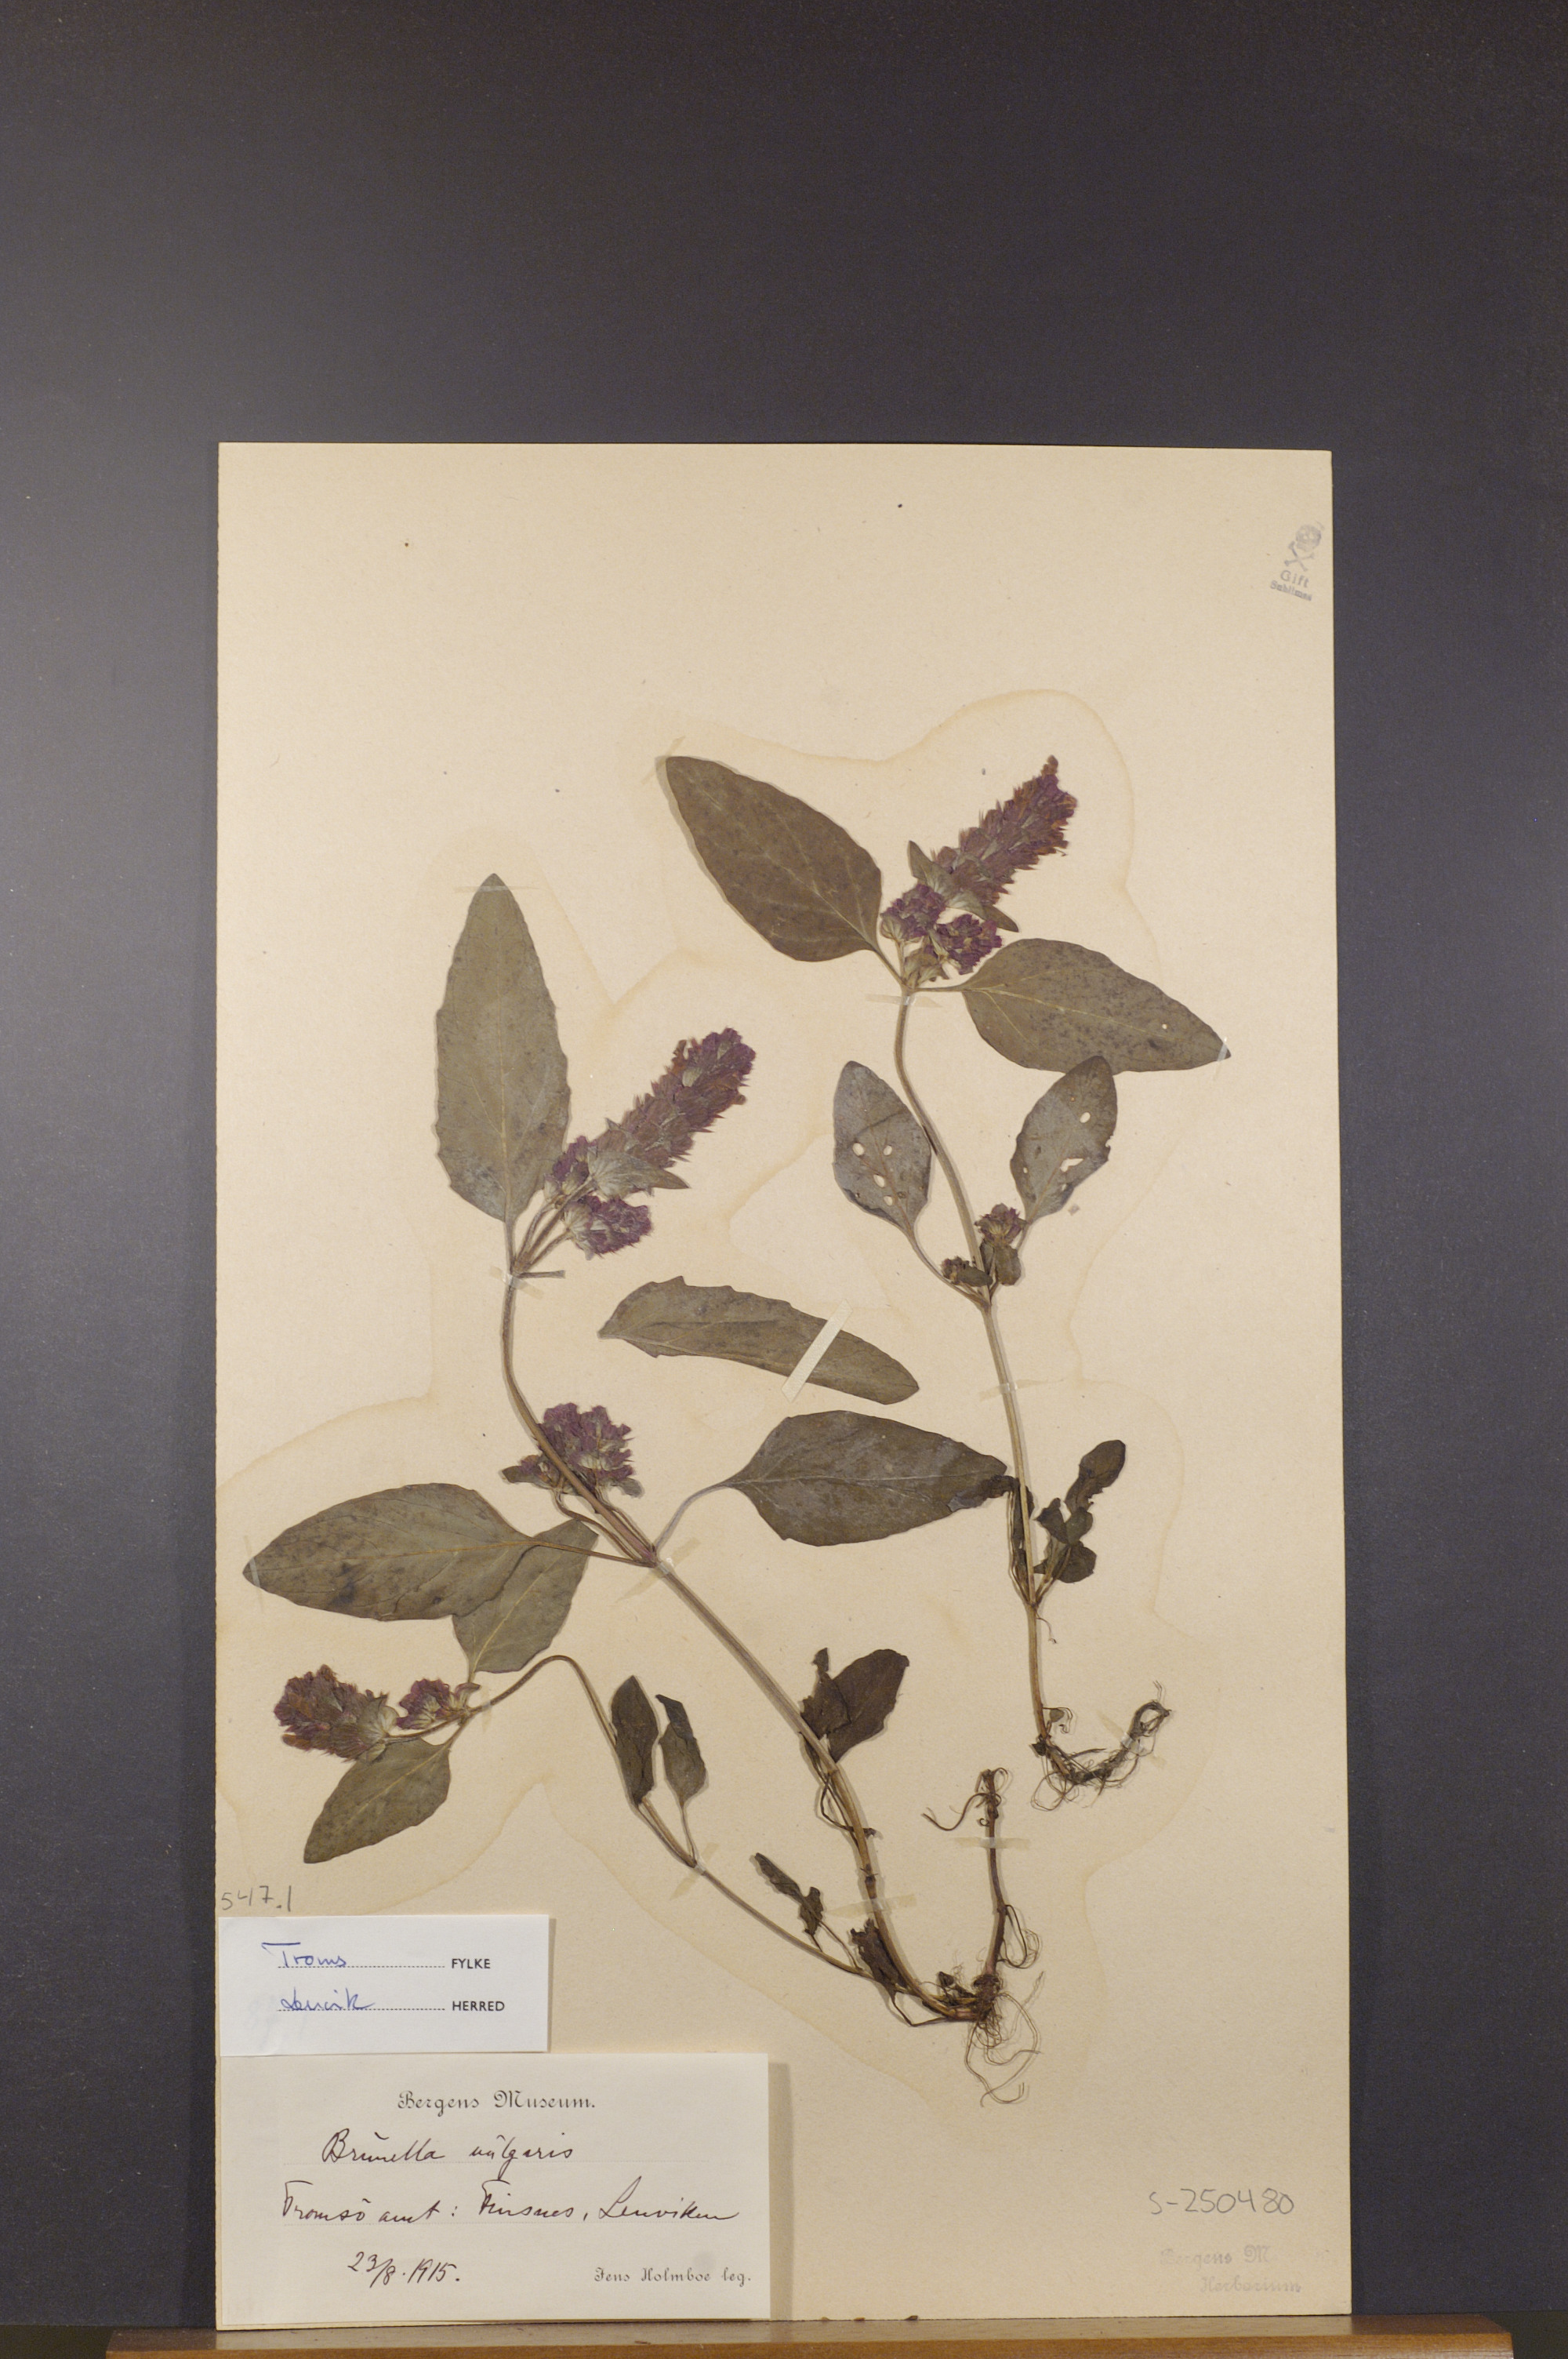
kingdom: Plantae
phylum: Tracheophyta
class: Magnoliopsida
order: Lamiales
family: Lamiaceae
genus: Prunella
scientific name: Prunella vulgaris
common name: Heal-all
